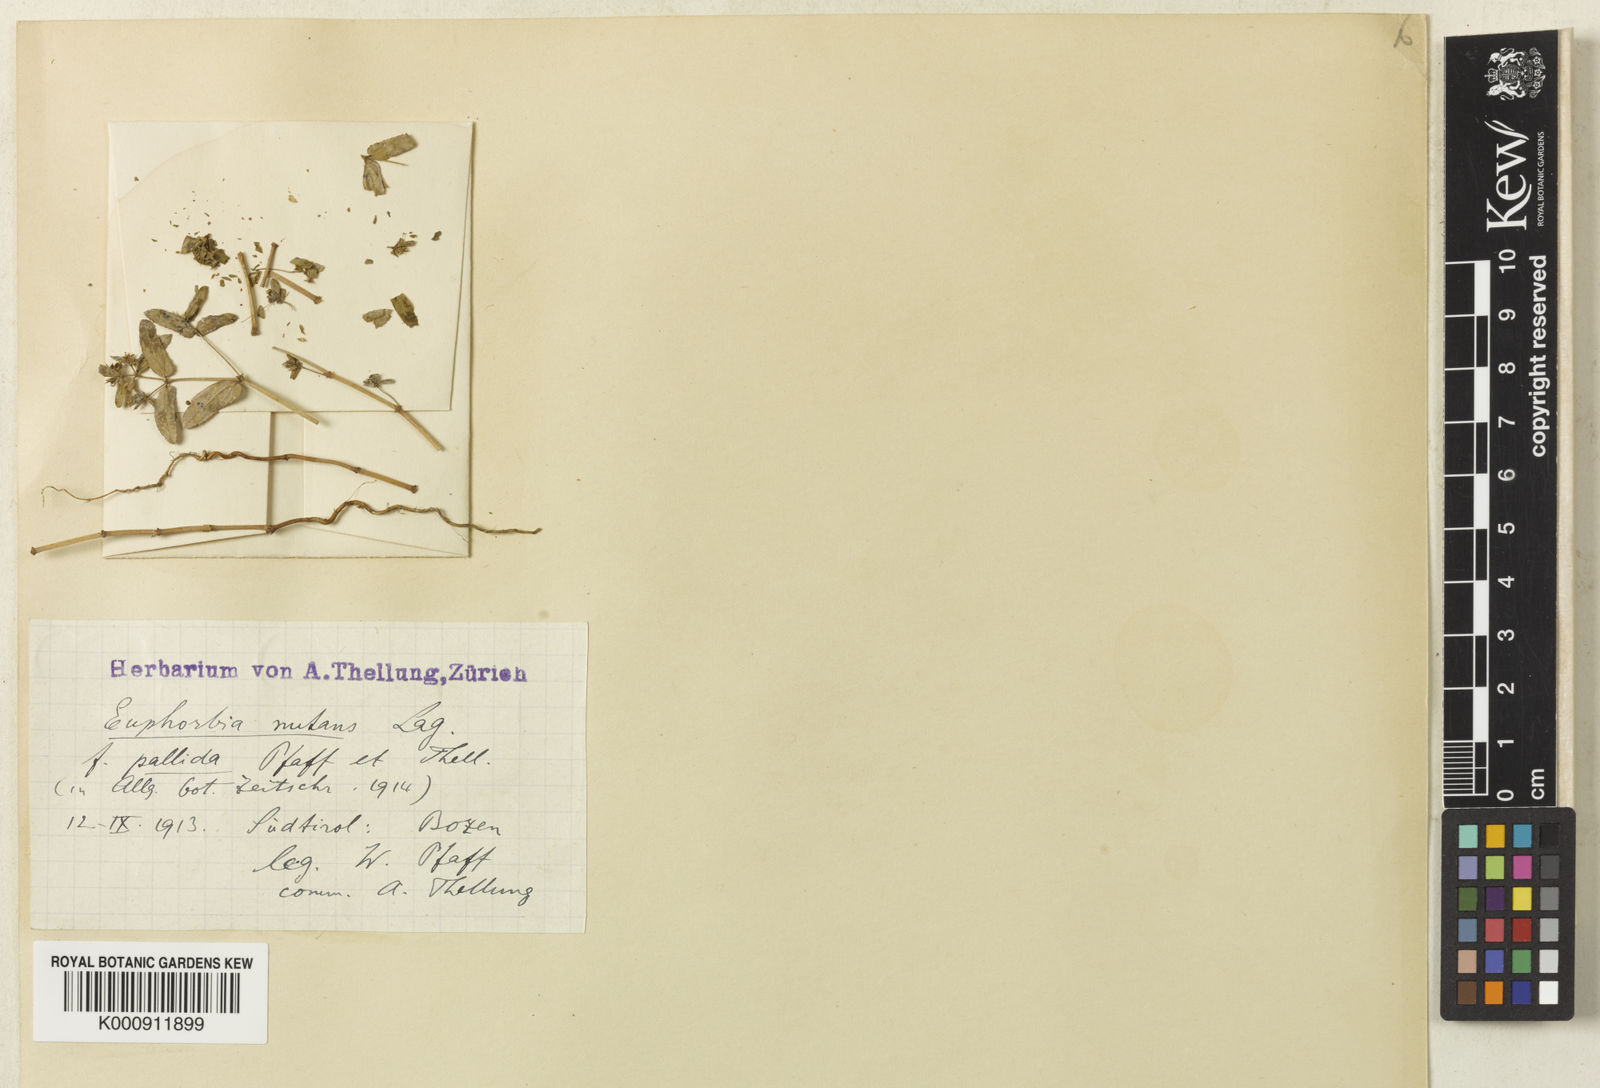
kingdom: Plantae
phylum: Tracheophyta
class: Magnoliopsida
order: Malpighiales
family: Euphorbiaceae
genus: Euphorbia
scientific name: Euphorbia nutans
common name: Eyebane
